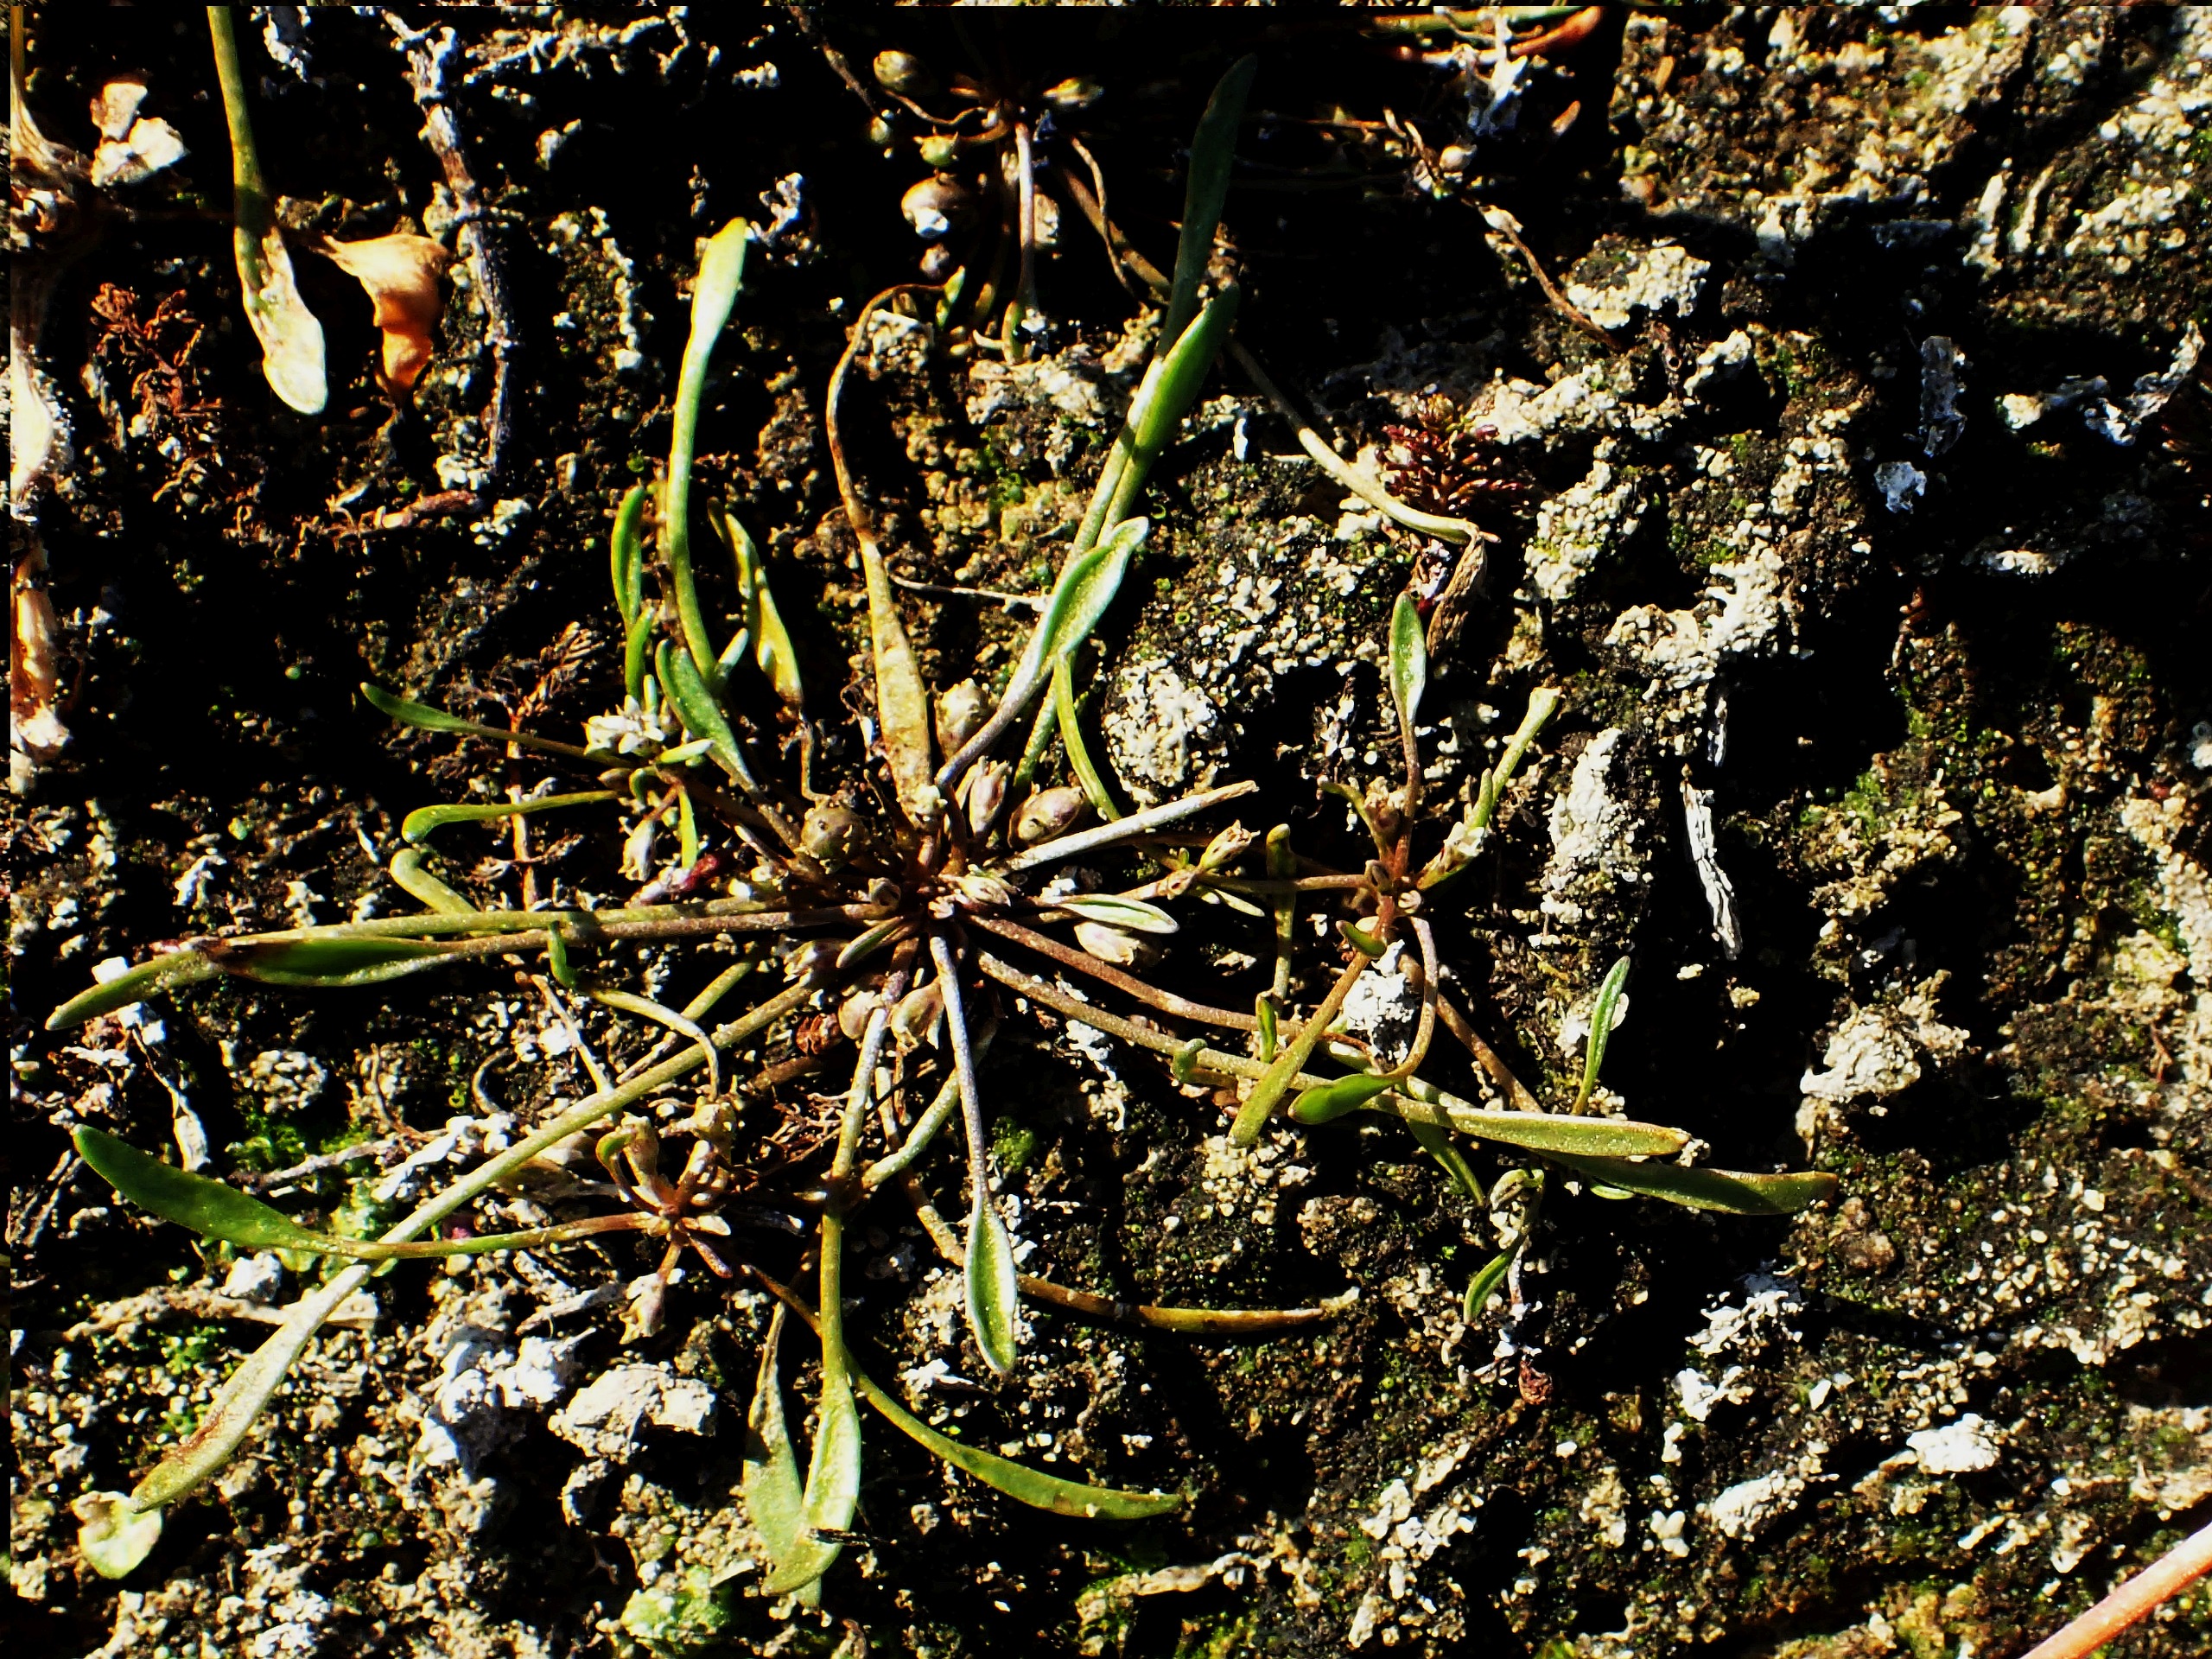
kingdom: Plantae
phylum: Tracheophyta
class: Magnoliopsida
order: Lamiales
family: Scrophulariaceae
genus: Limosella
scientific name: Limosella aquatica
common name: Dyndurt
